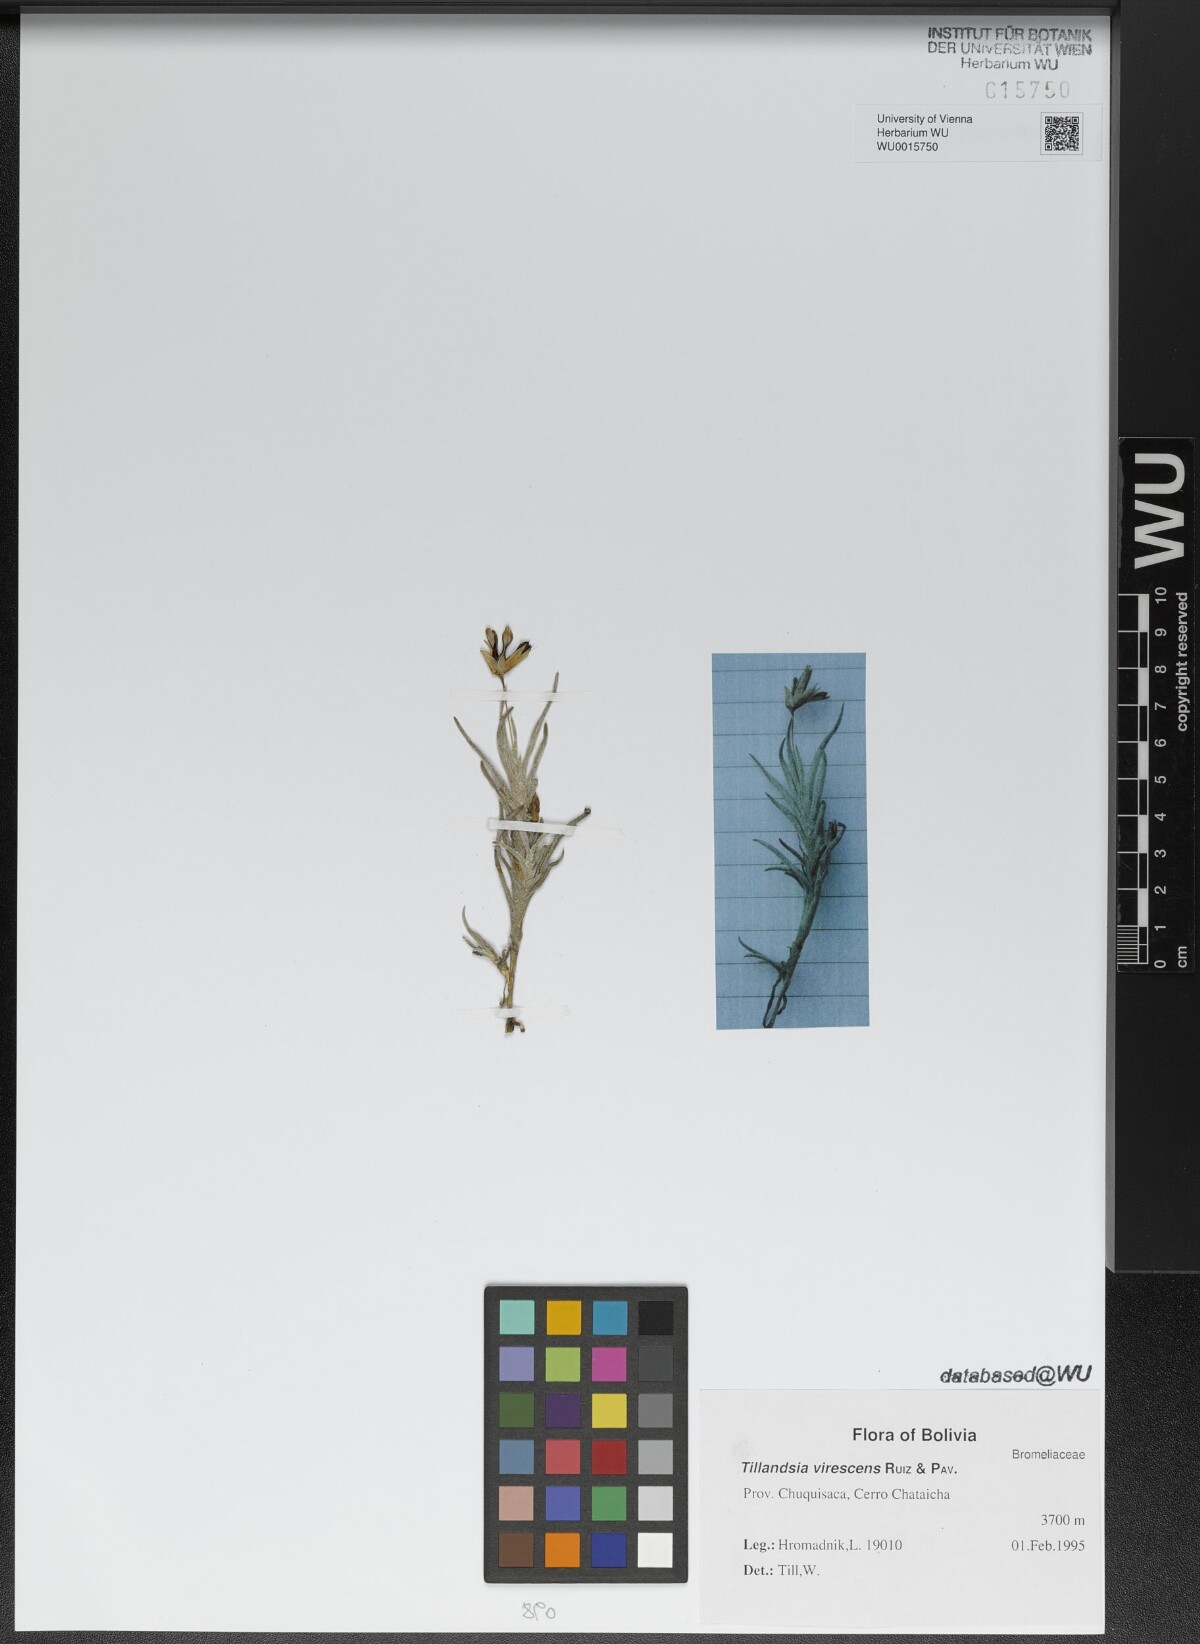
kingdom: Plantae
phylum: Tracheophyta
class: Liliopsida
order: Poales
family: Bromeliaceae
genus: Tillandsia
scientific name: Tillandsia virescens
